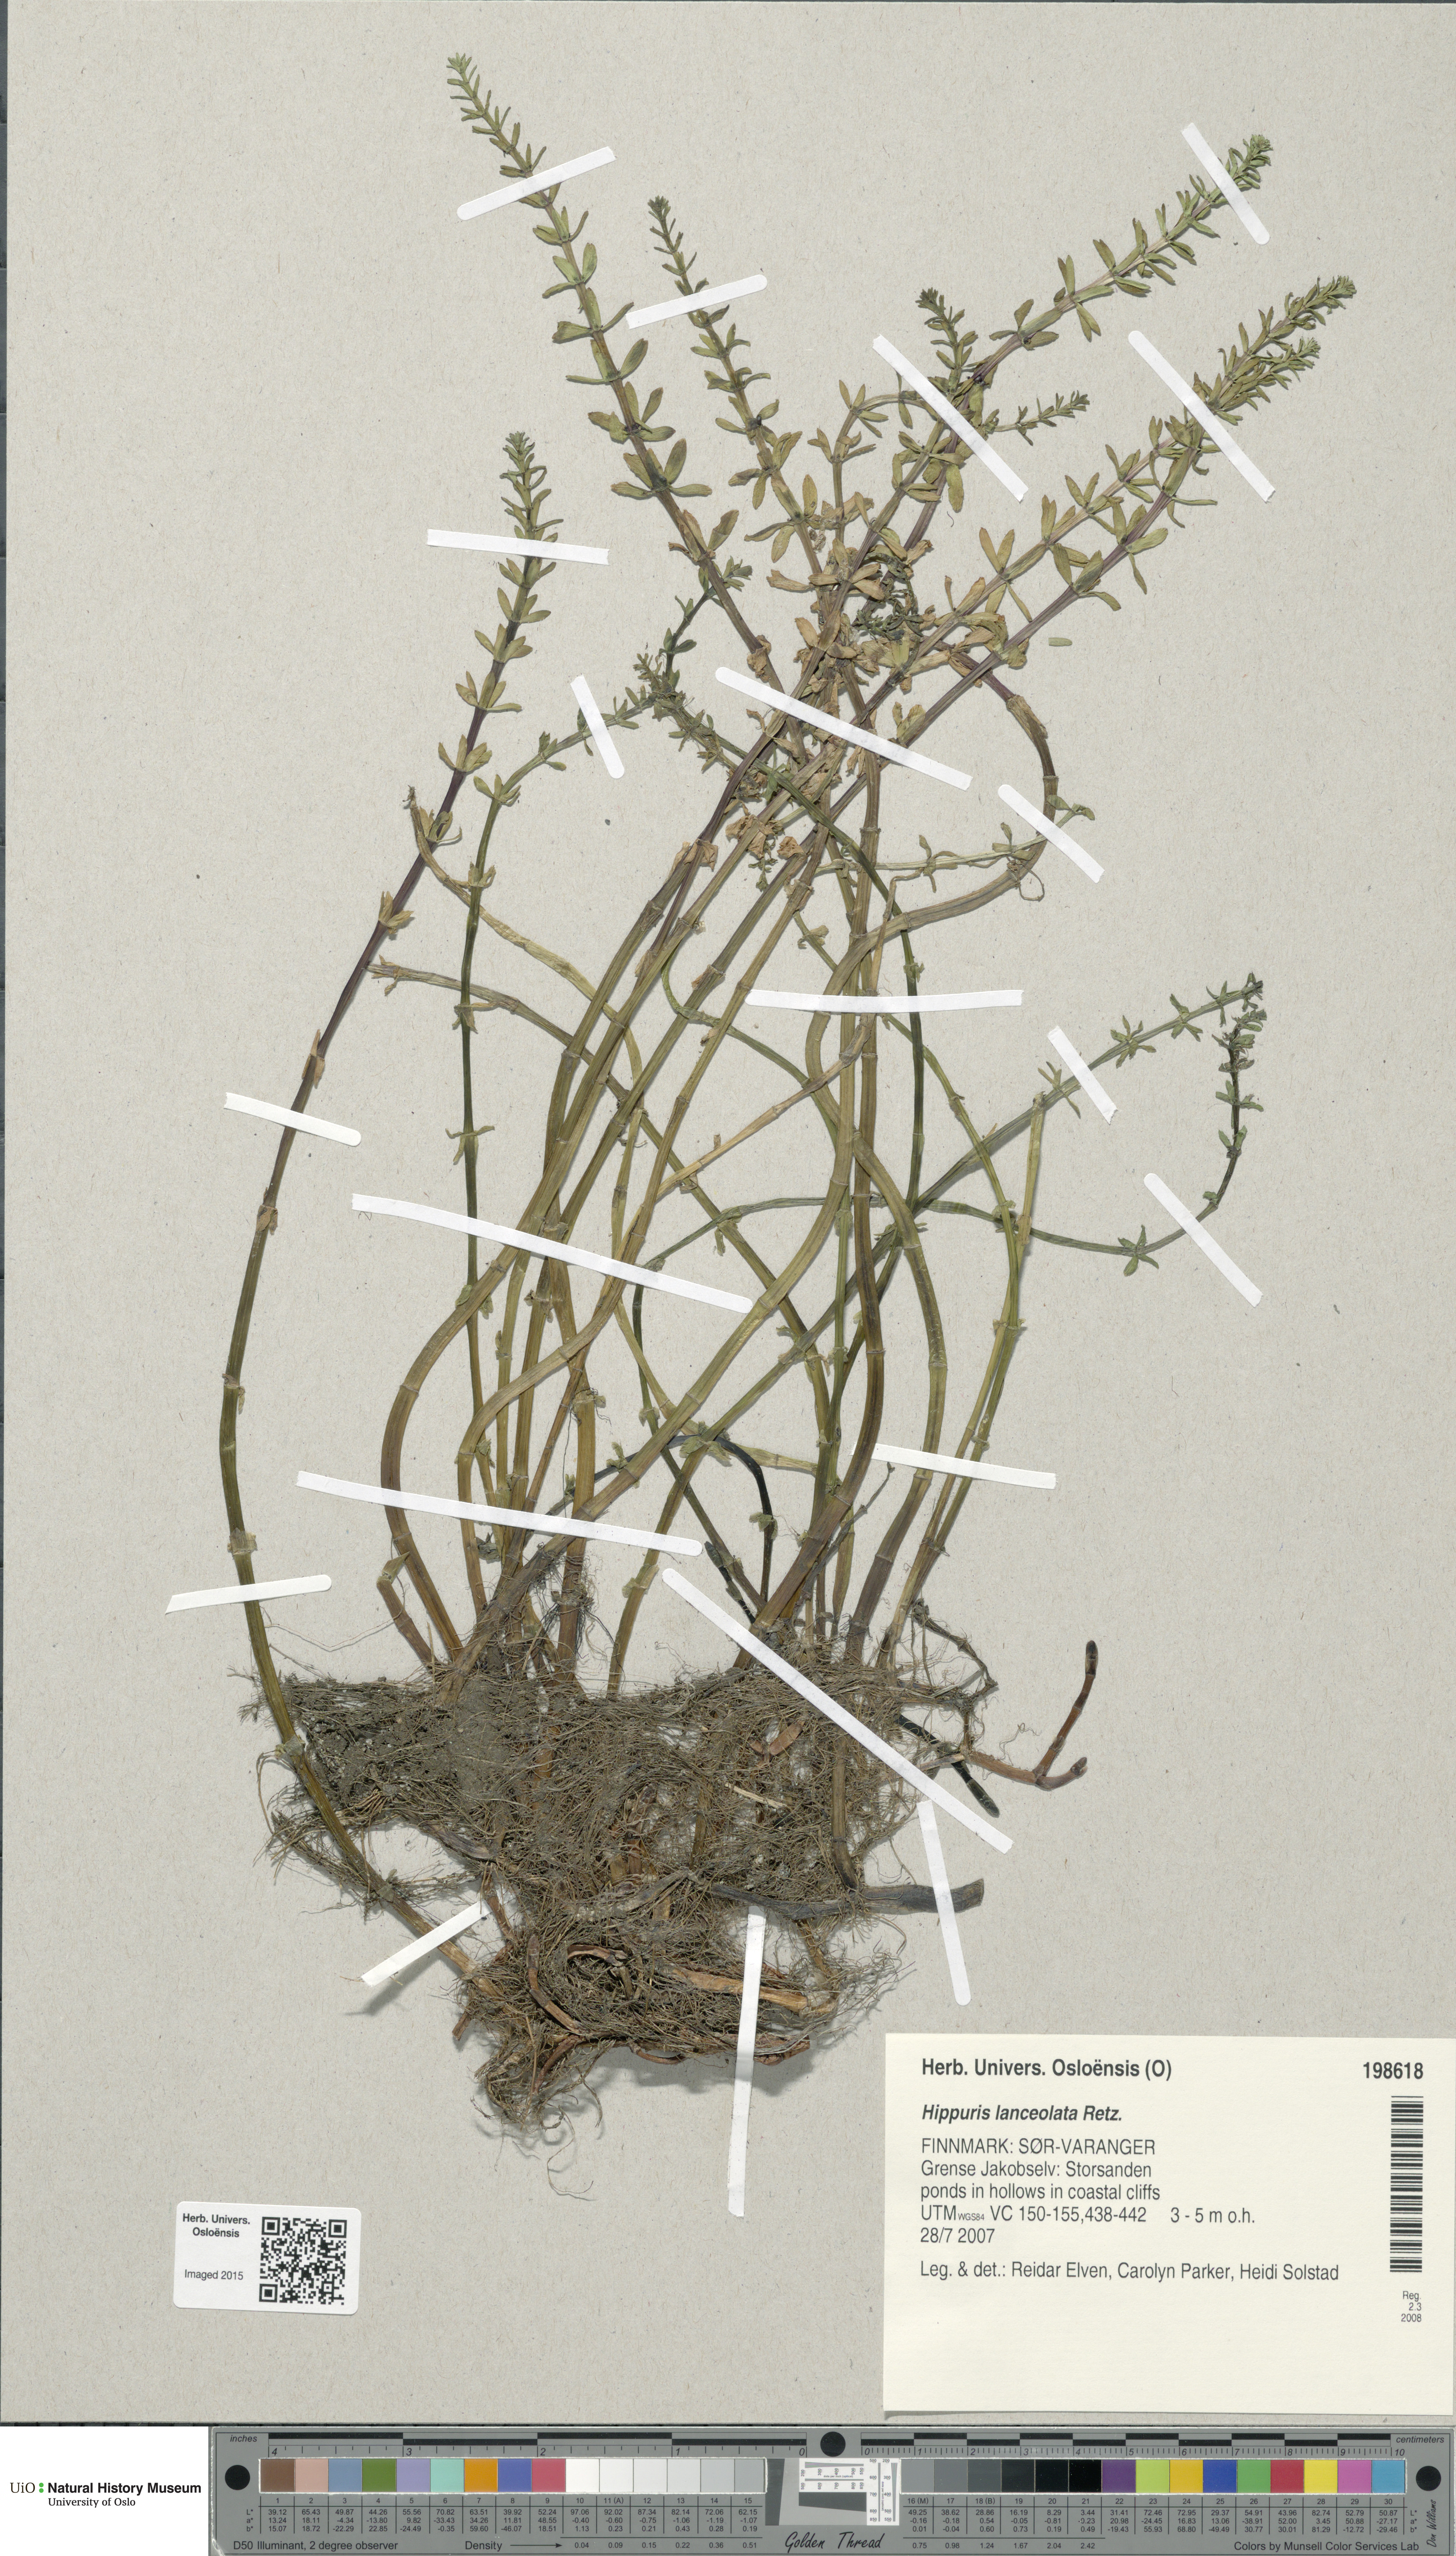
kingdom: Plantae
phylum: Tracheophyta
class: Magnoliopsida
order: Lamiales
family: Plantaginaceae
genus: Hippuris
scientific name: Hippuris lanceolata
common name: Lance-leaved mare's-tail
